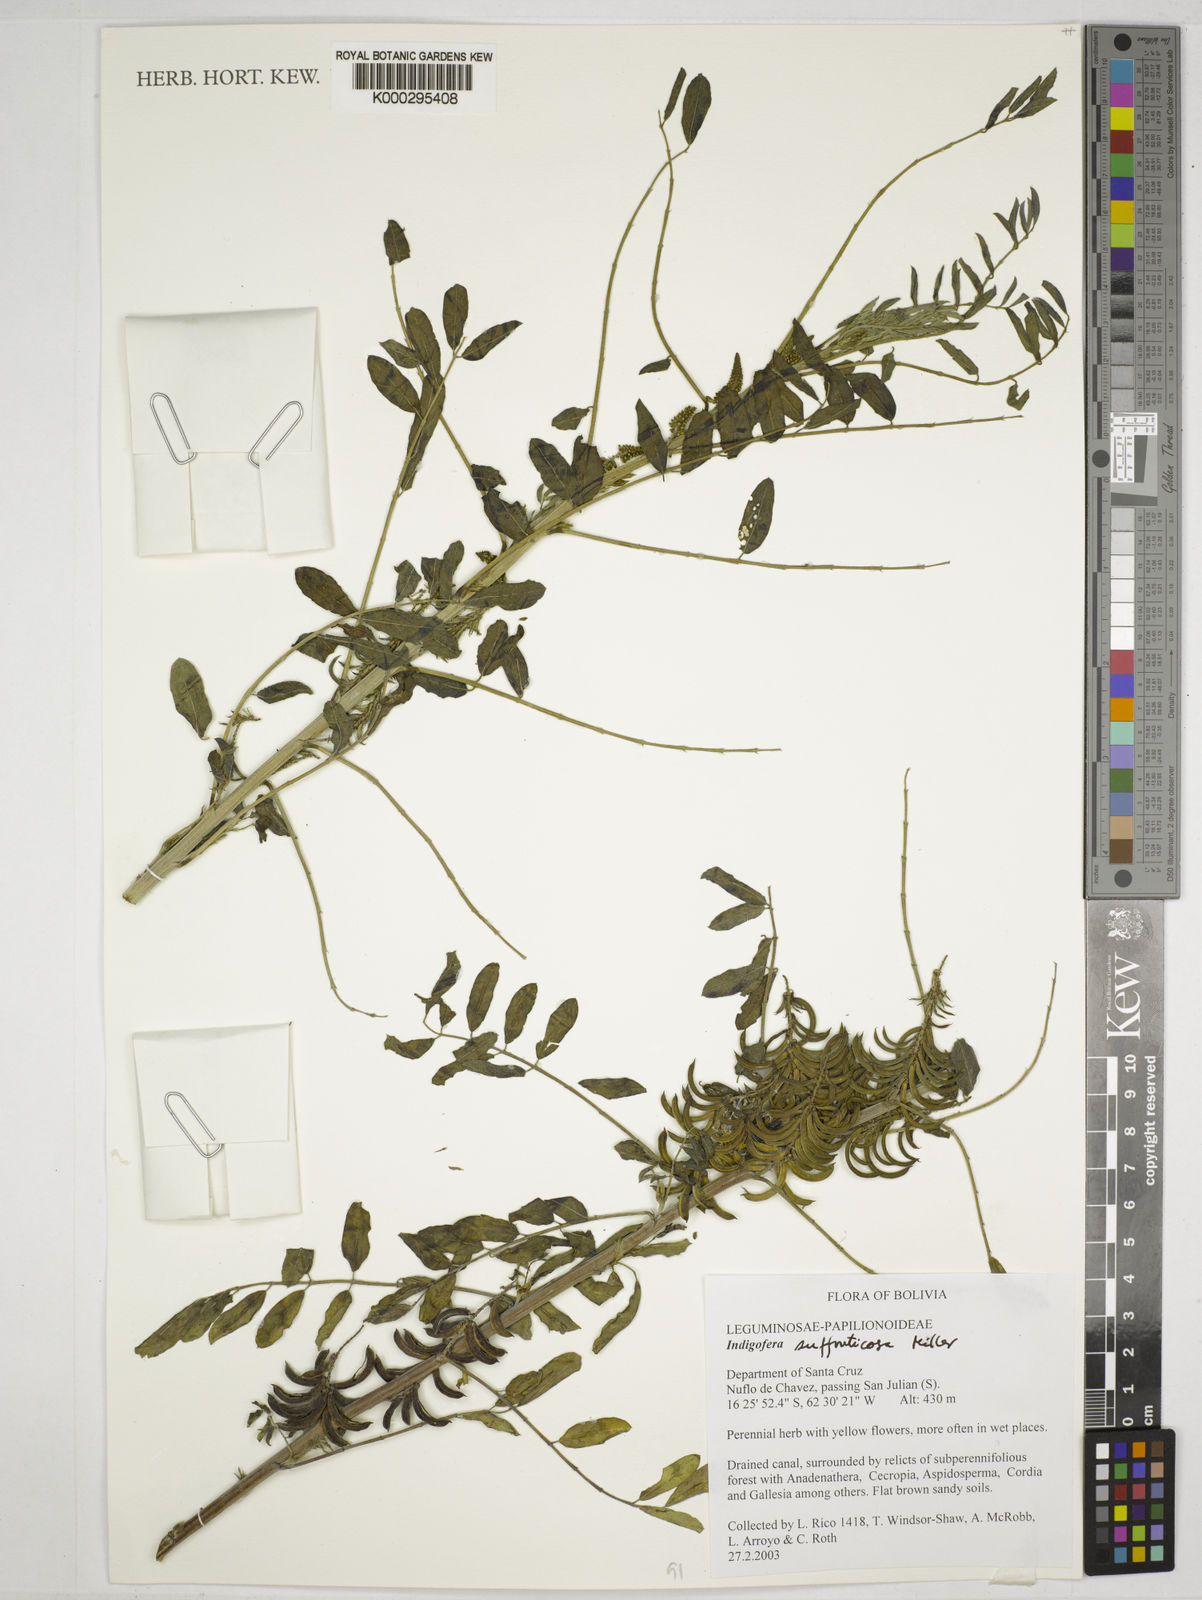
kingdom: Plantae
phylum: Tracheophyta
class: Magnoliopsida
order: Fabales
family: Fabaceae
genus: Indigofera
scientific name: Indigofera suffruticosa
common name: Anil de pasto
